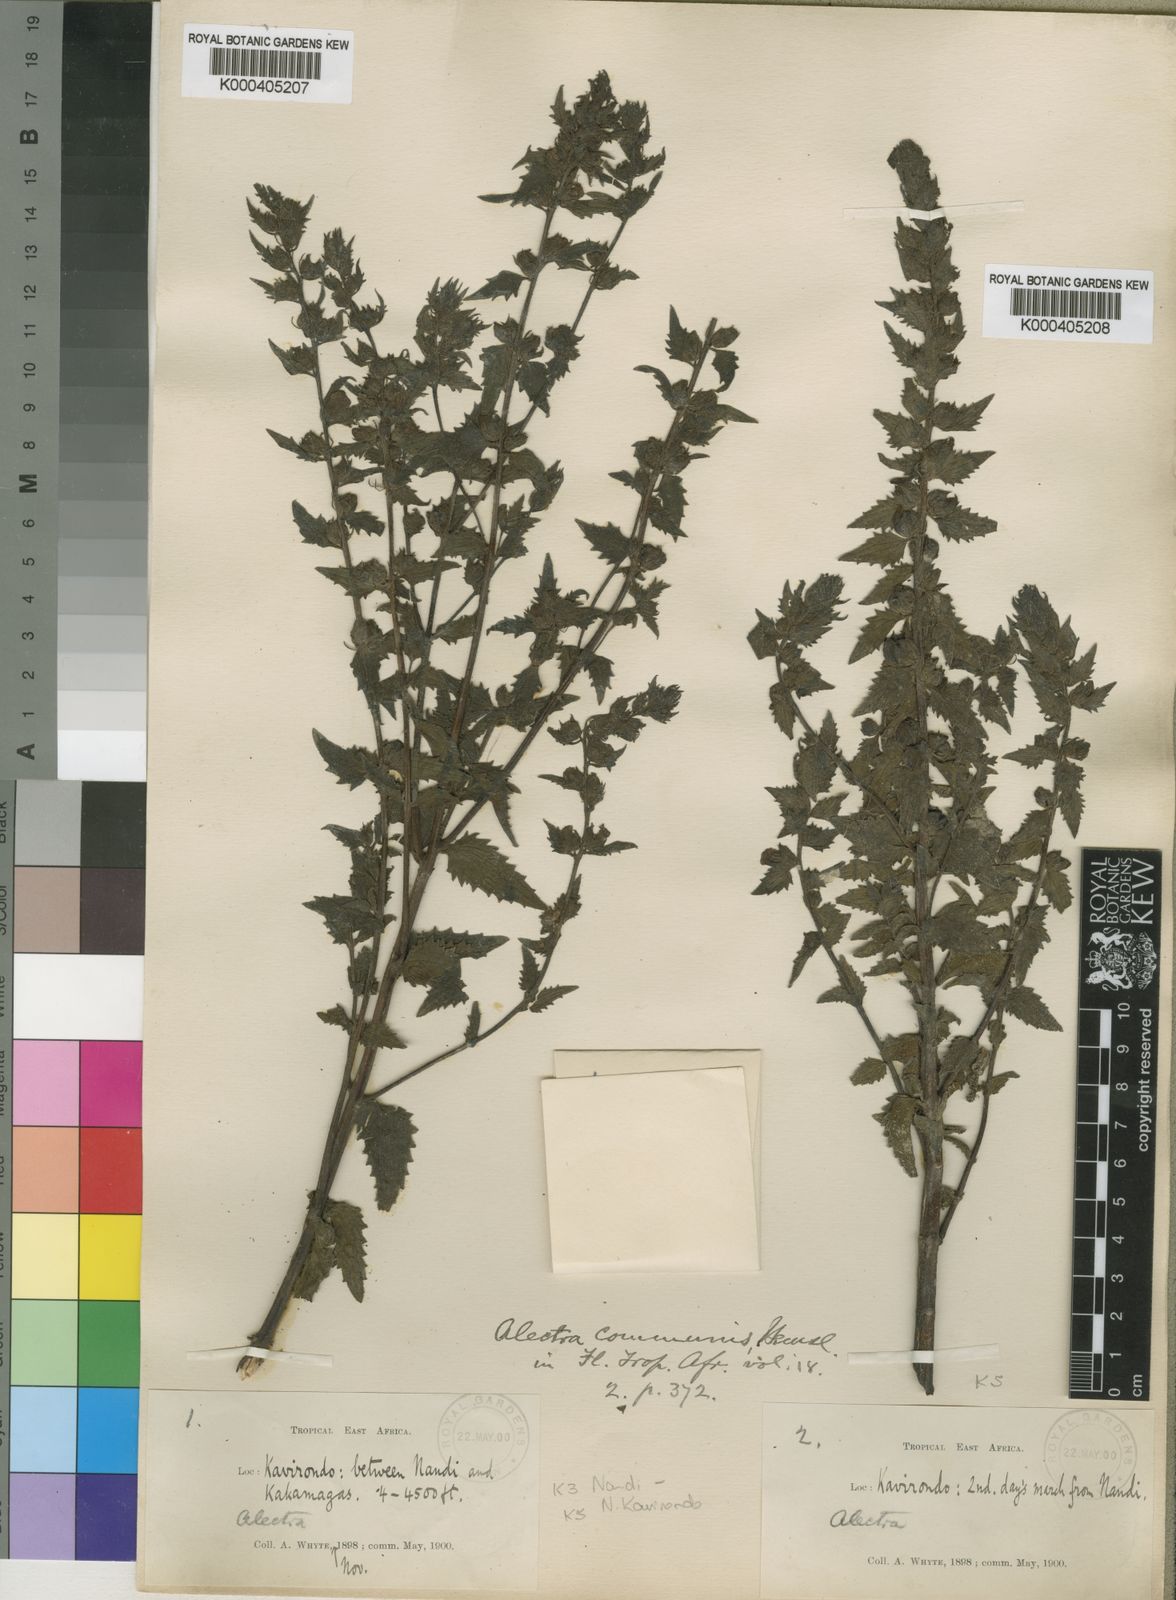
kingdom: Plantae
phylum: Tracheophyta
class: Magnoliopsida
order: Lamiales
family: Orobanchaceae
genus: Alectra
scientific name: Alectra sessiliflora
